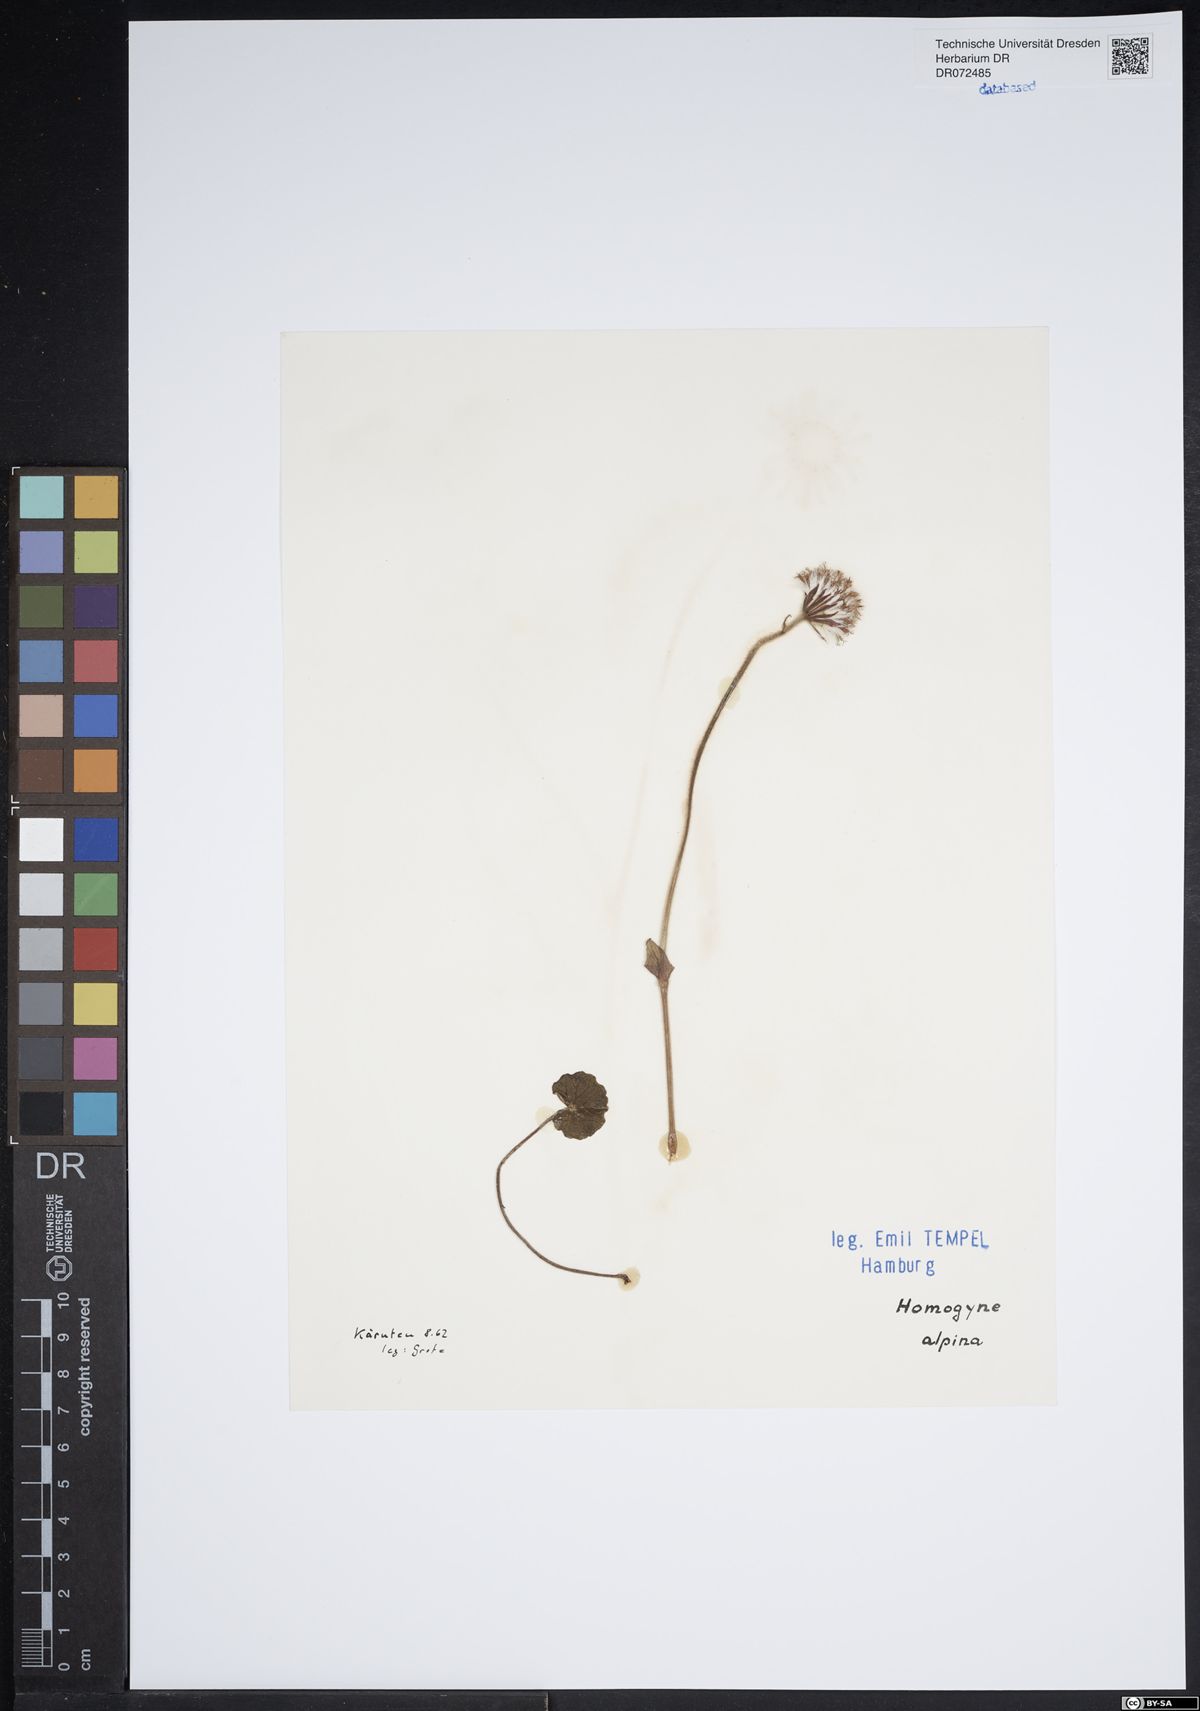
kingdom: Plantae
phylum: Tracheophyta
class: Magnoliopsida
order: Asterales
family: Asteraceae
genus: Homogyne
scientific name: Homogyne alpina
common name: Purple colt's-foot
